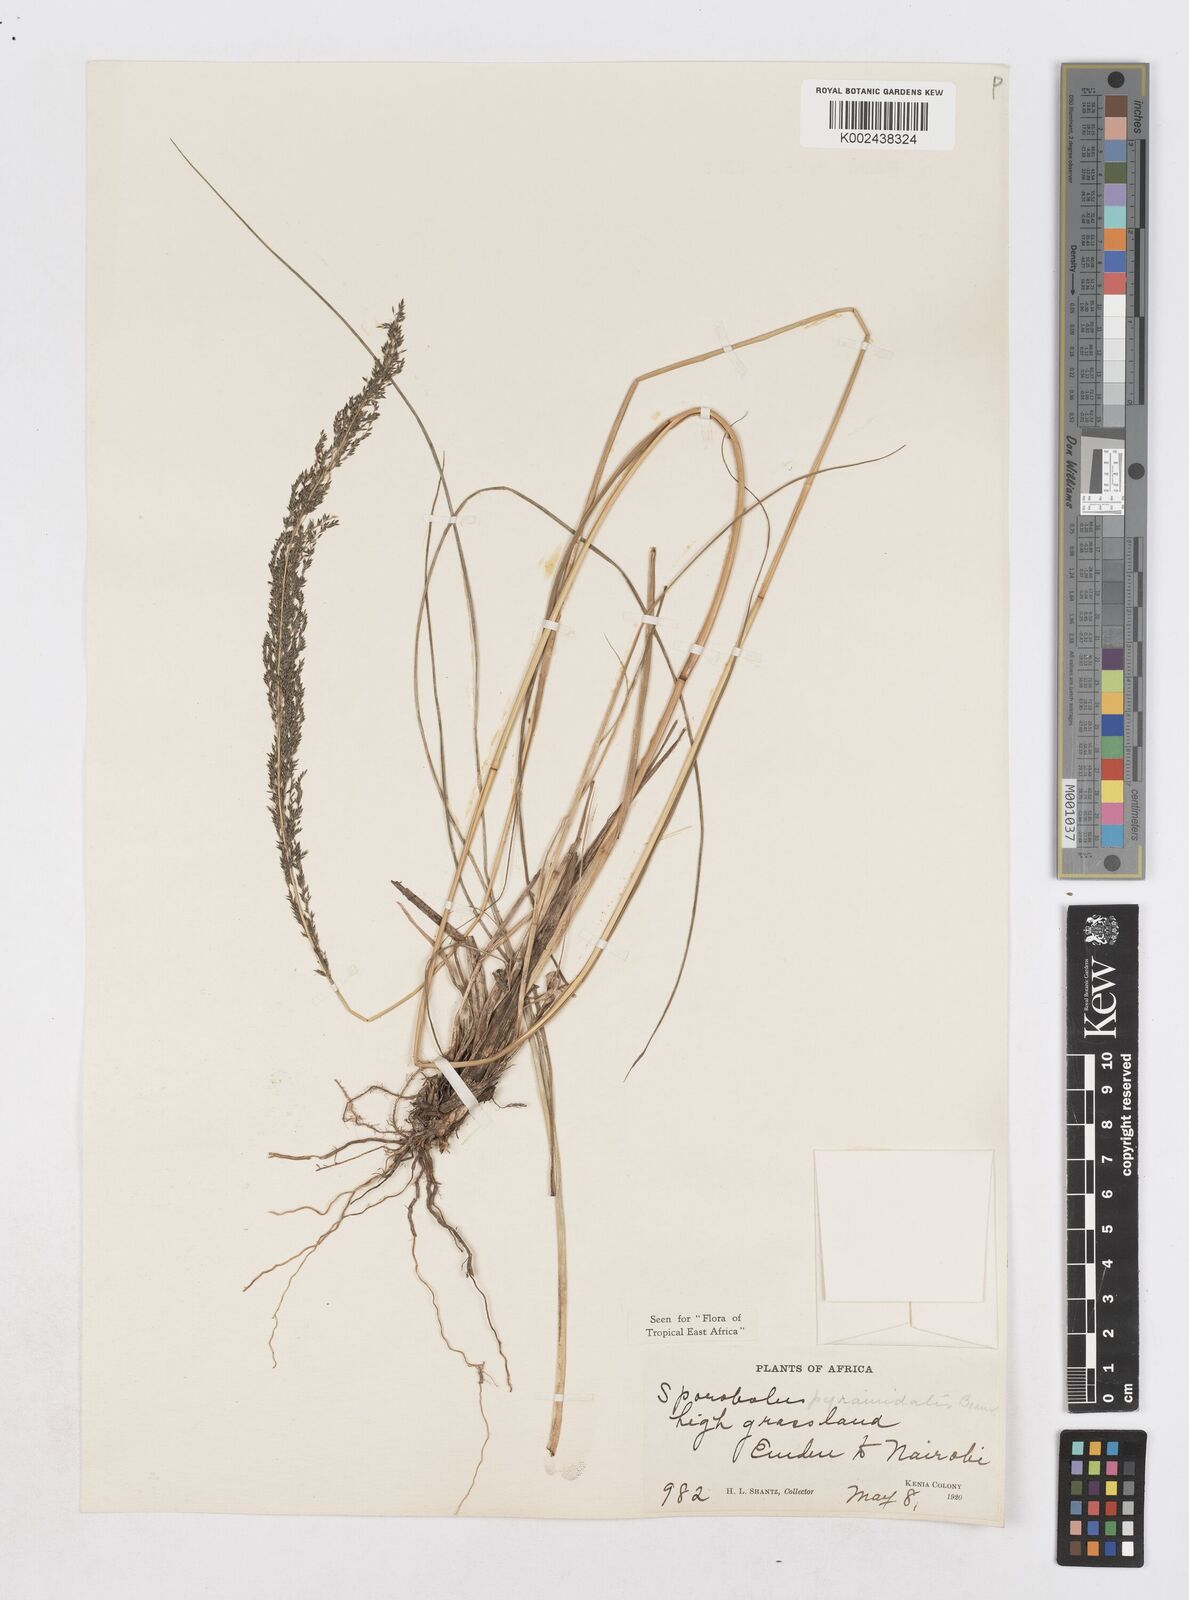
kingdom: Plantae
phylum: Tracheophyta
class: Liliopsida
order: Poales
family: Poaceae
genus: Sporobolus
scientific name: Sporobolus pyramidalis
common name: West indian dropseed
